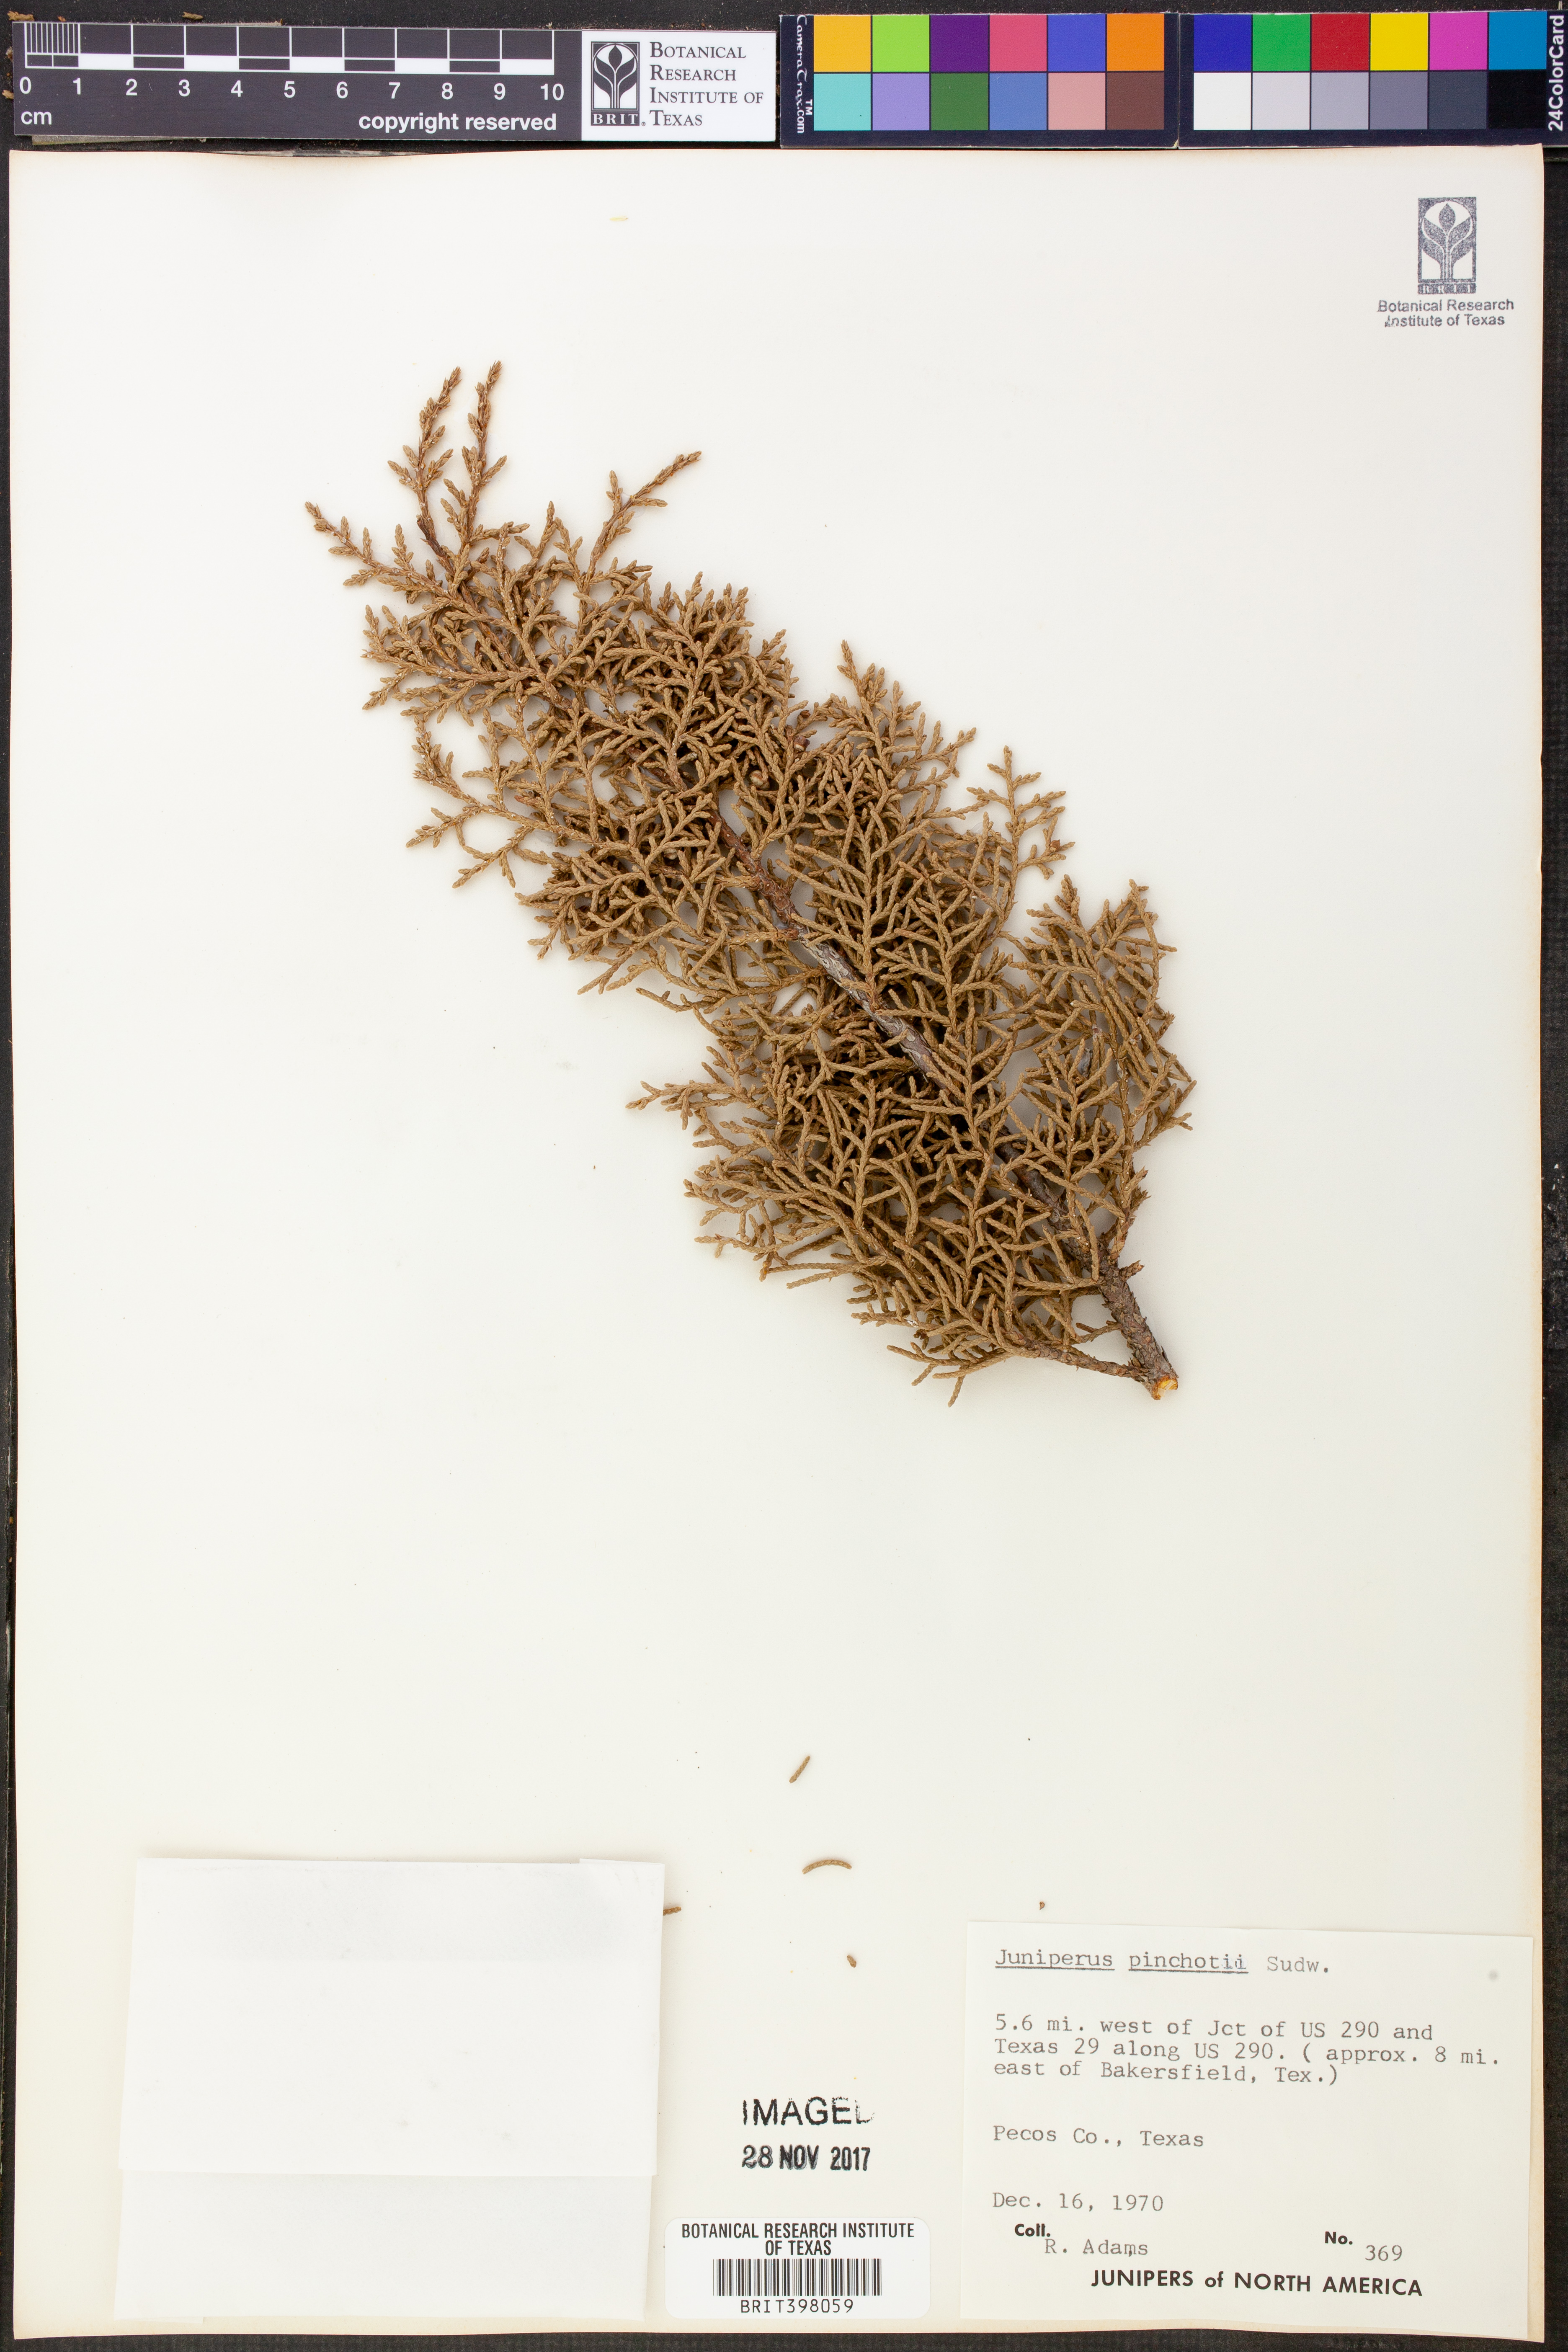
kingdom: Plantae
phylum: Tracheophyta
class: Pinopsida
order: Pinales
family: Cupressaceae
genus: Juniperus
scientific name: Juniperus pinchotii
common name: Pinchot juniper
